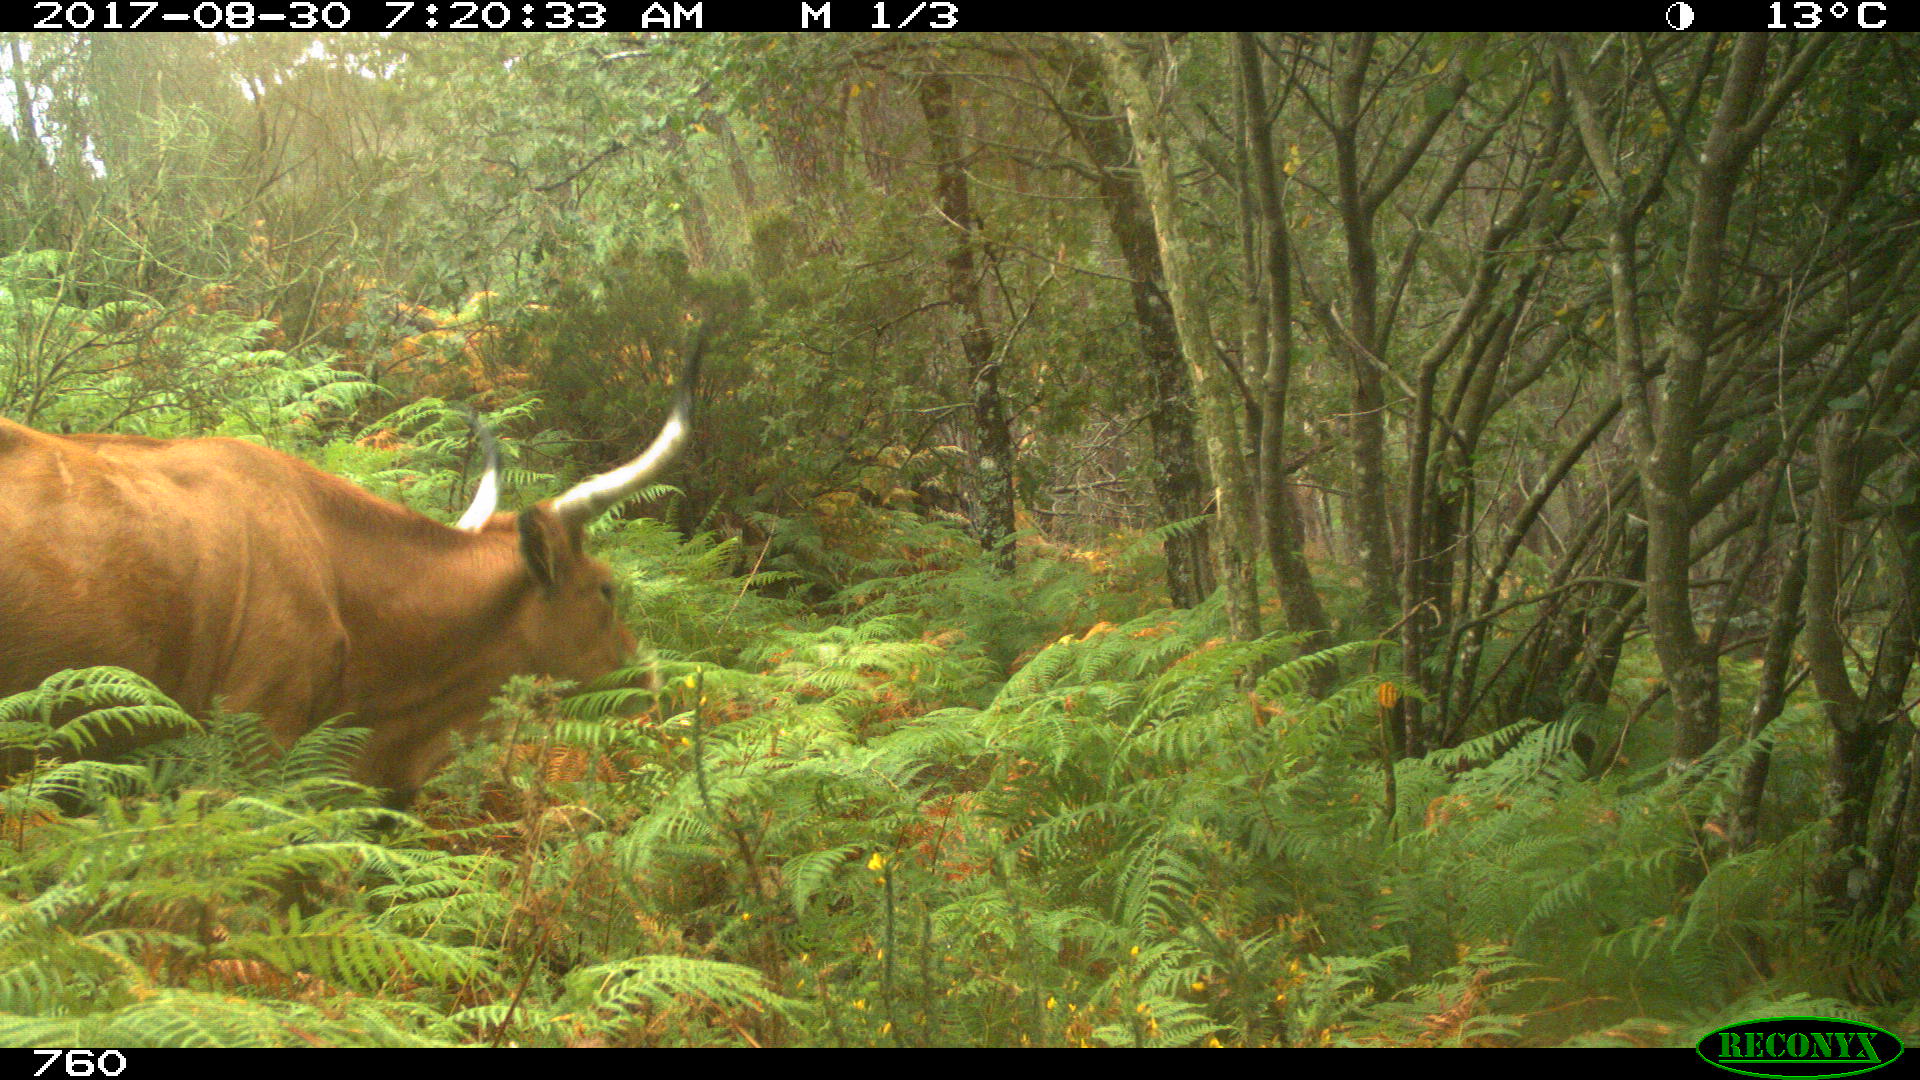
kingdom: Animalia
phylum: Chordata
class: Mammalia
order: Artiodactyla
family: Bovidae
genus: Bos
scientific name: Bos taurus
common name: Domesticated cattle
